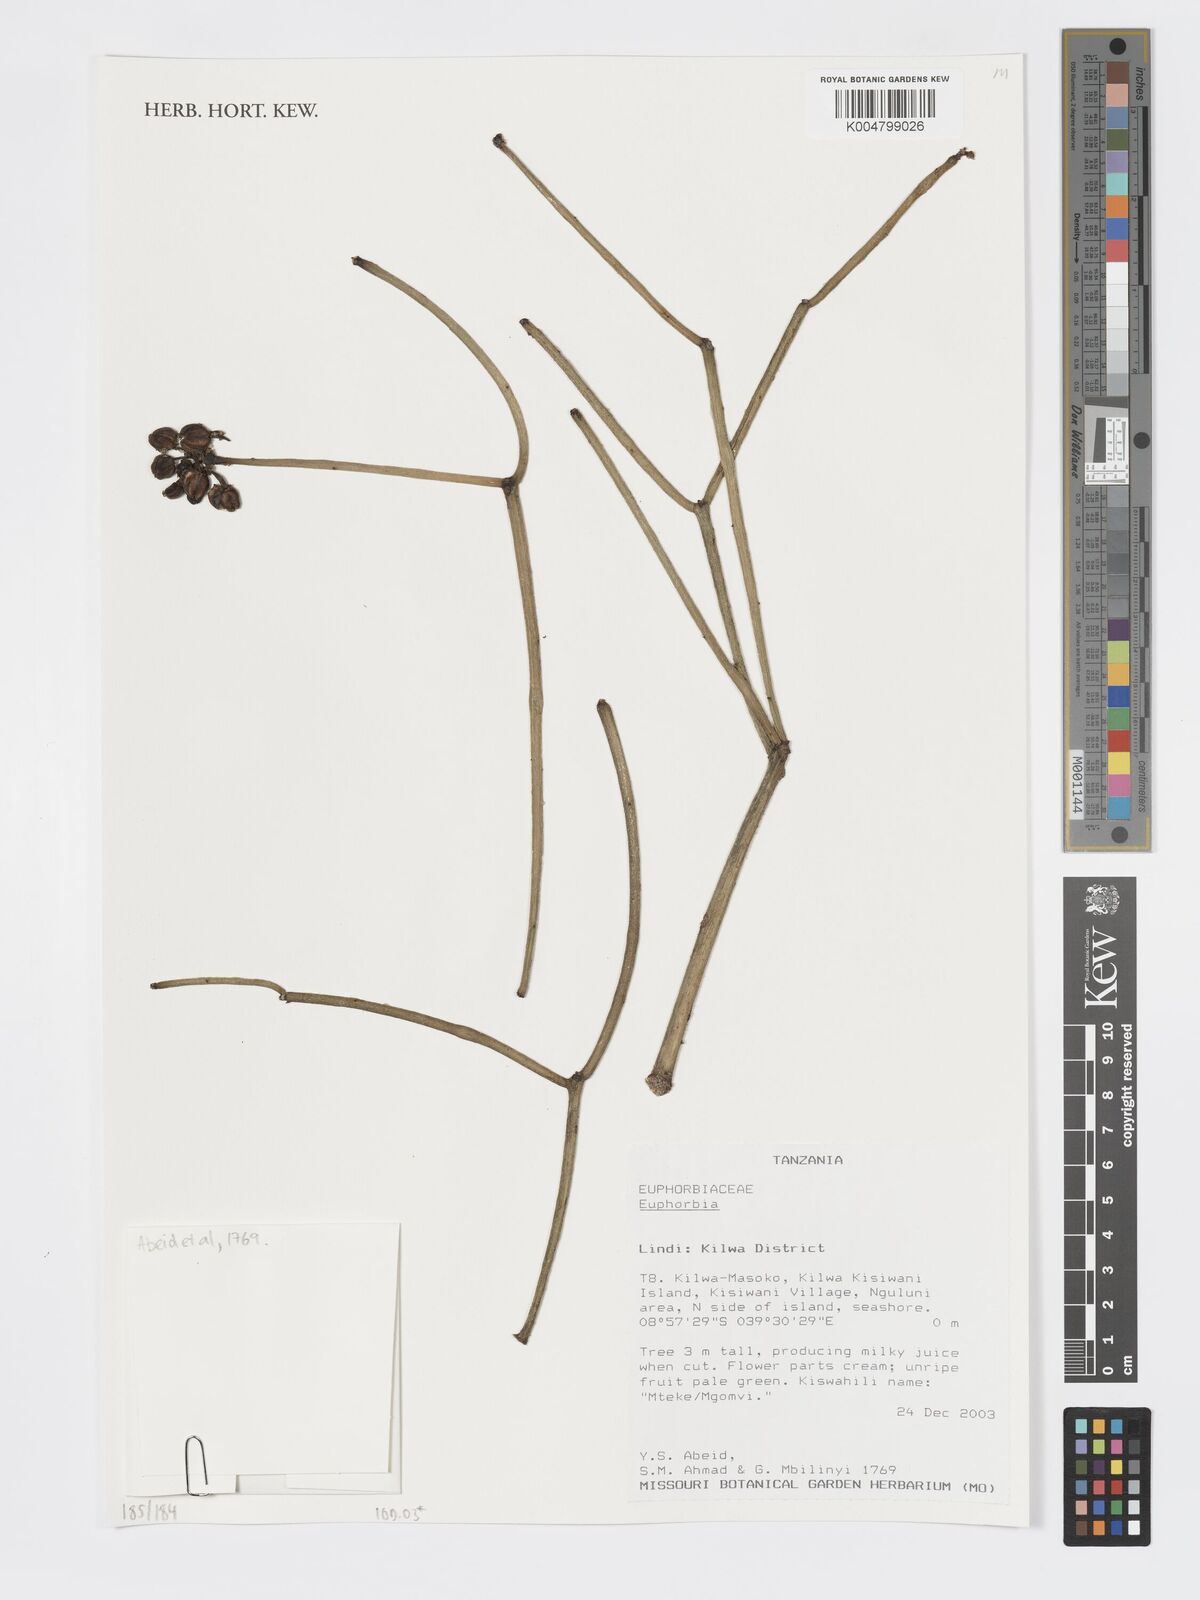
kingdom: Plantae
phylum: Tracheophyta
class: Magnoliopsida
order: Malpighiales
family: Euphorbiaceae
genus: Euphorbia
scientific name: Euphorbia
